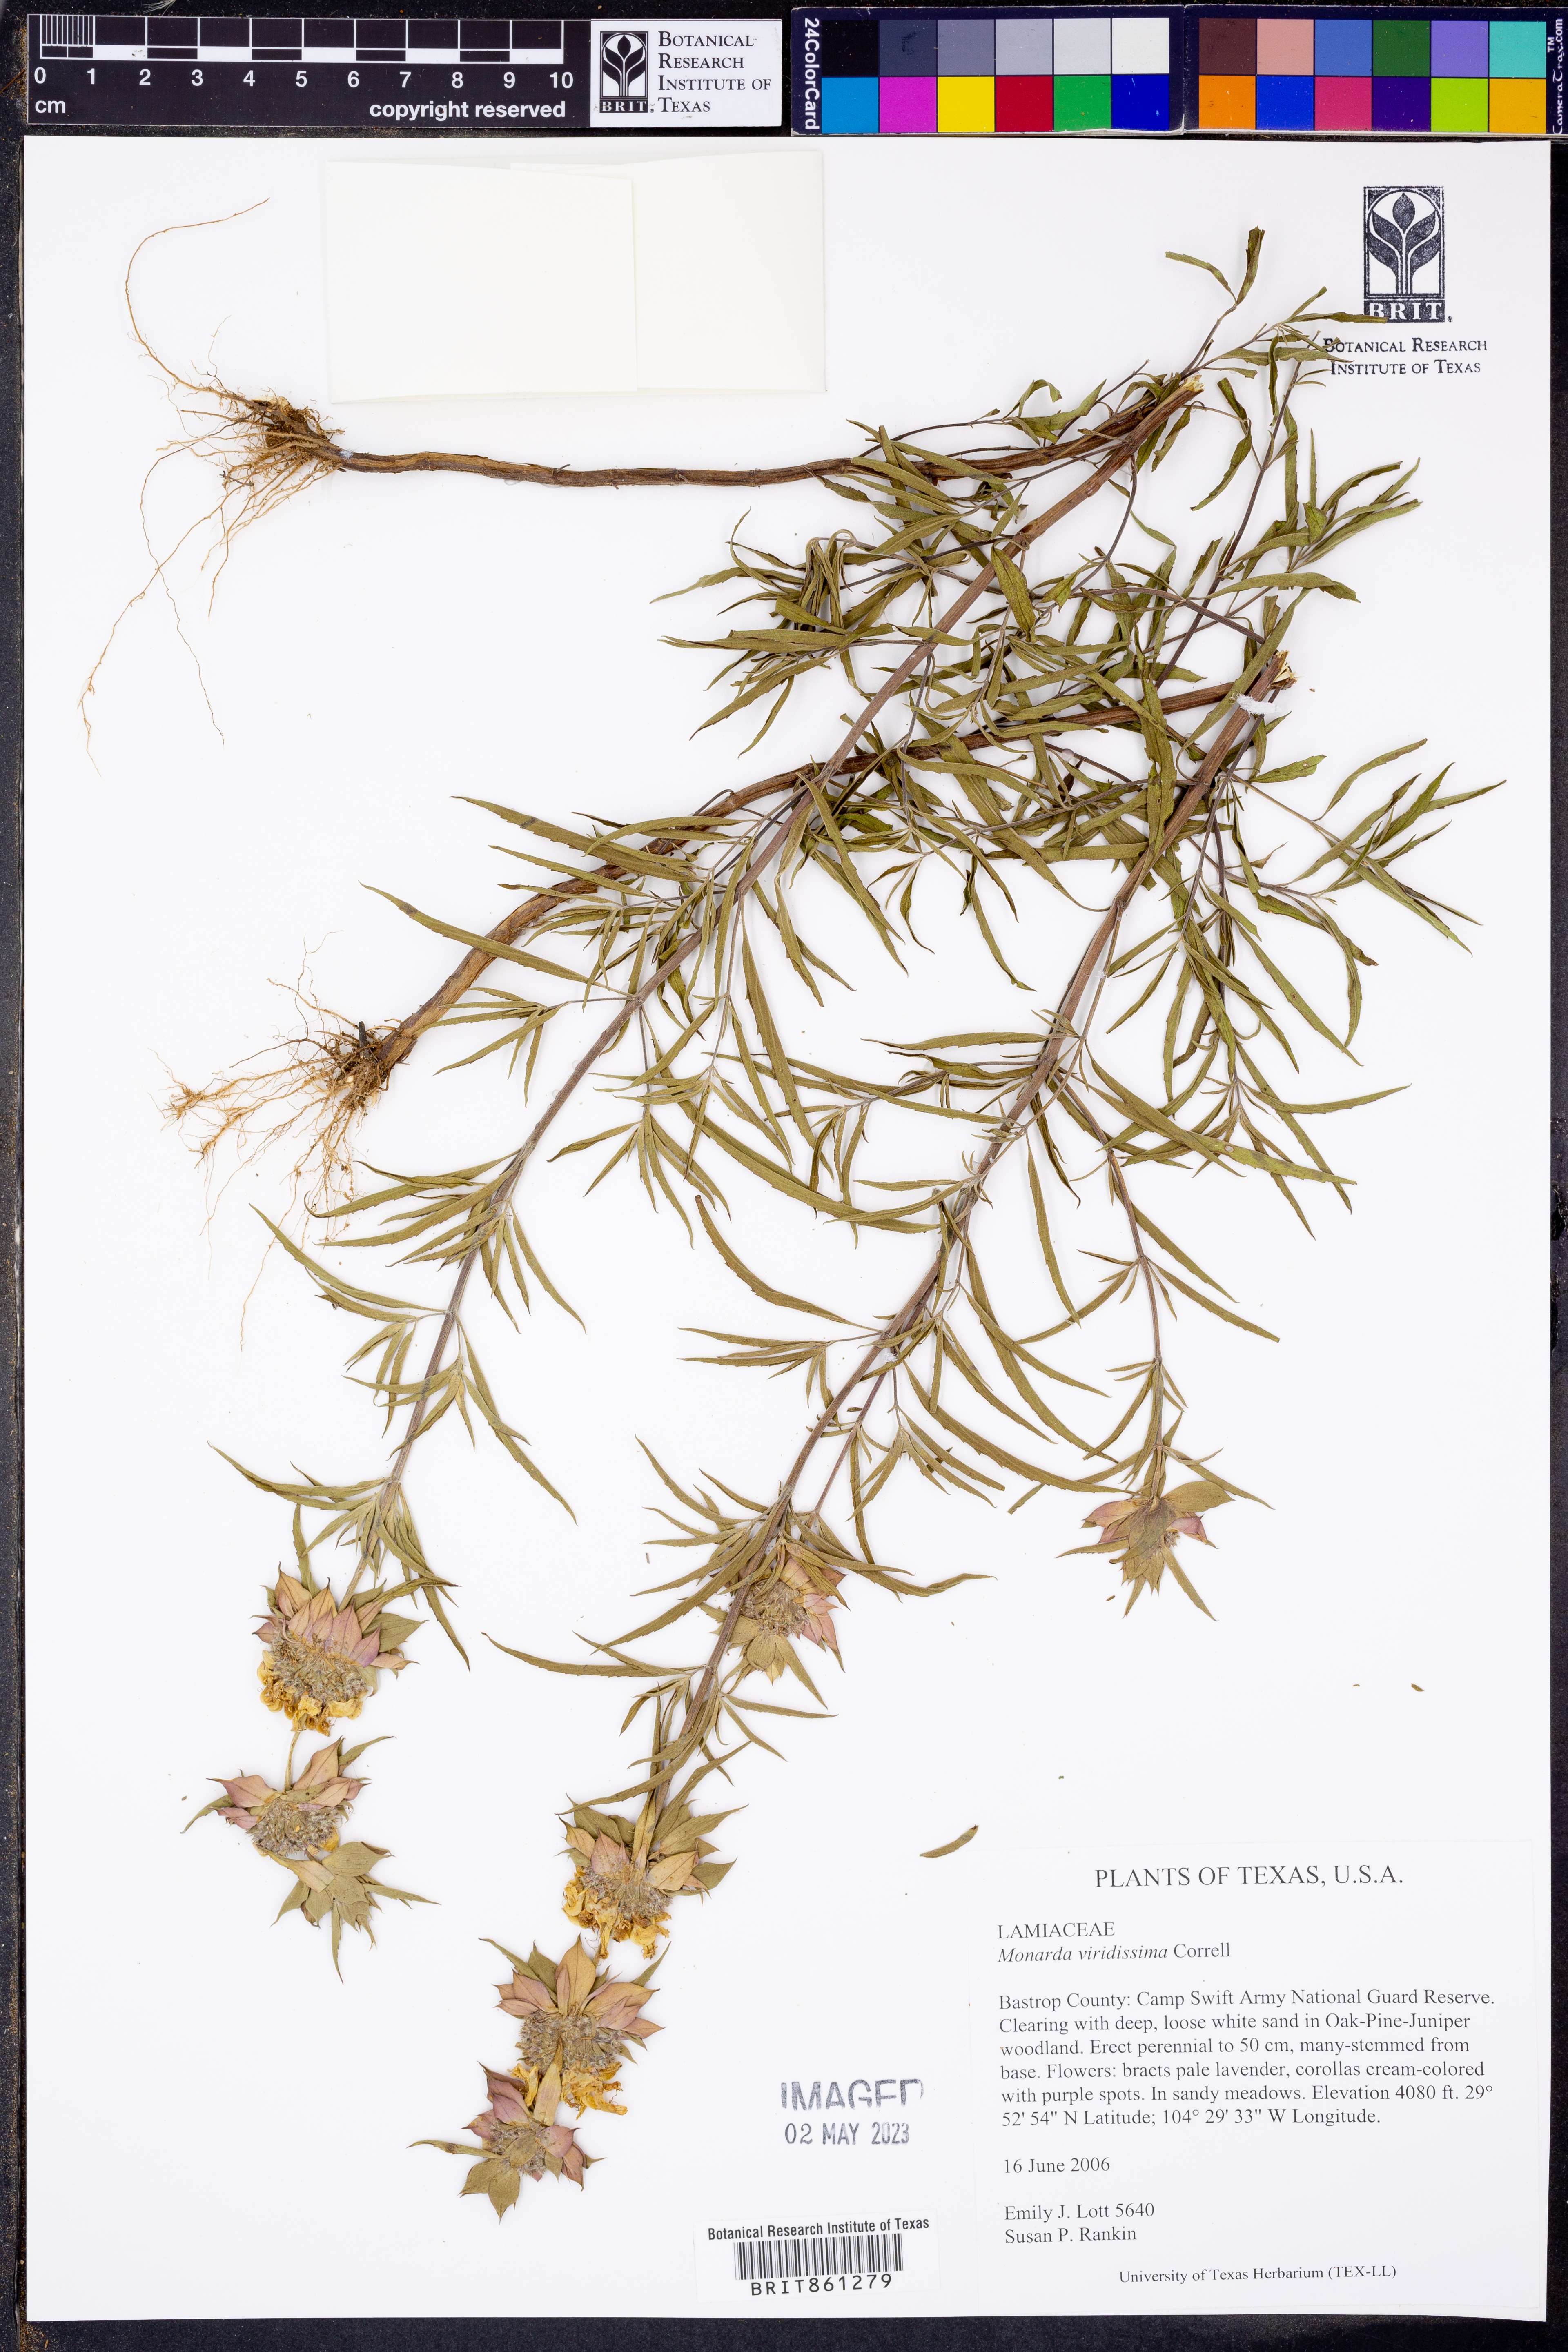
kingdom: Plantae
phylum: Tracheophyta
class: Magnoliopsida
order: Lamiales
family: Lamiaceae
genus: Monarda
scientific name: Monarda viridissima
